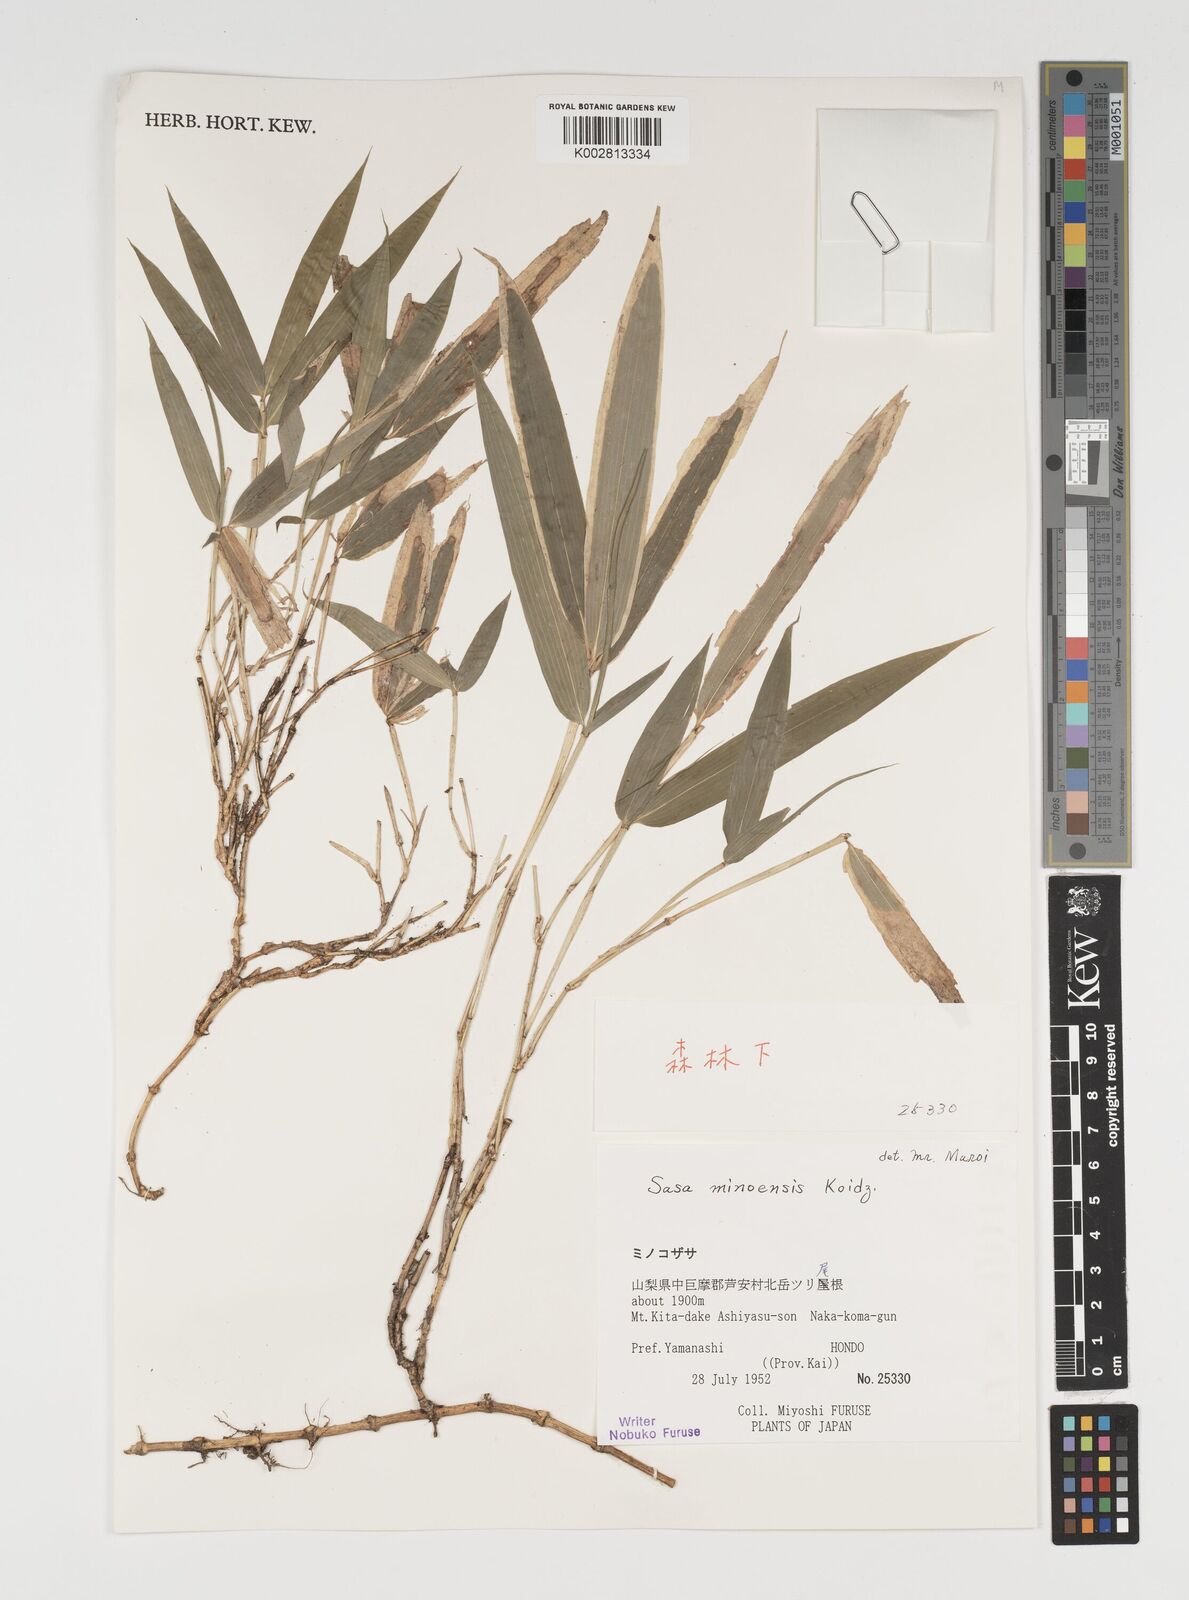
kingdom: Plantae
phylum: Tracheophyta
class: Liliopsida
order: Poales
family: Poaceae
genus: Sasaella
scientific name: Sasaella hidaensis
